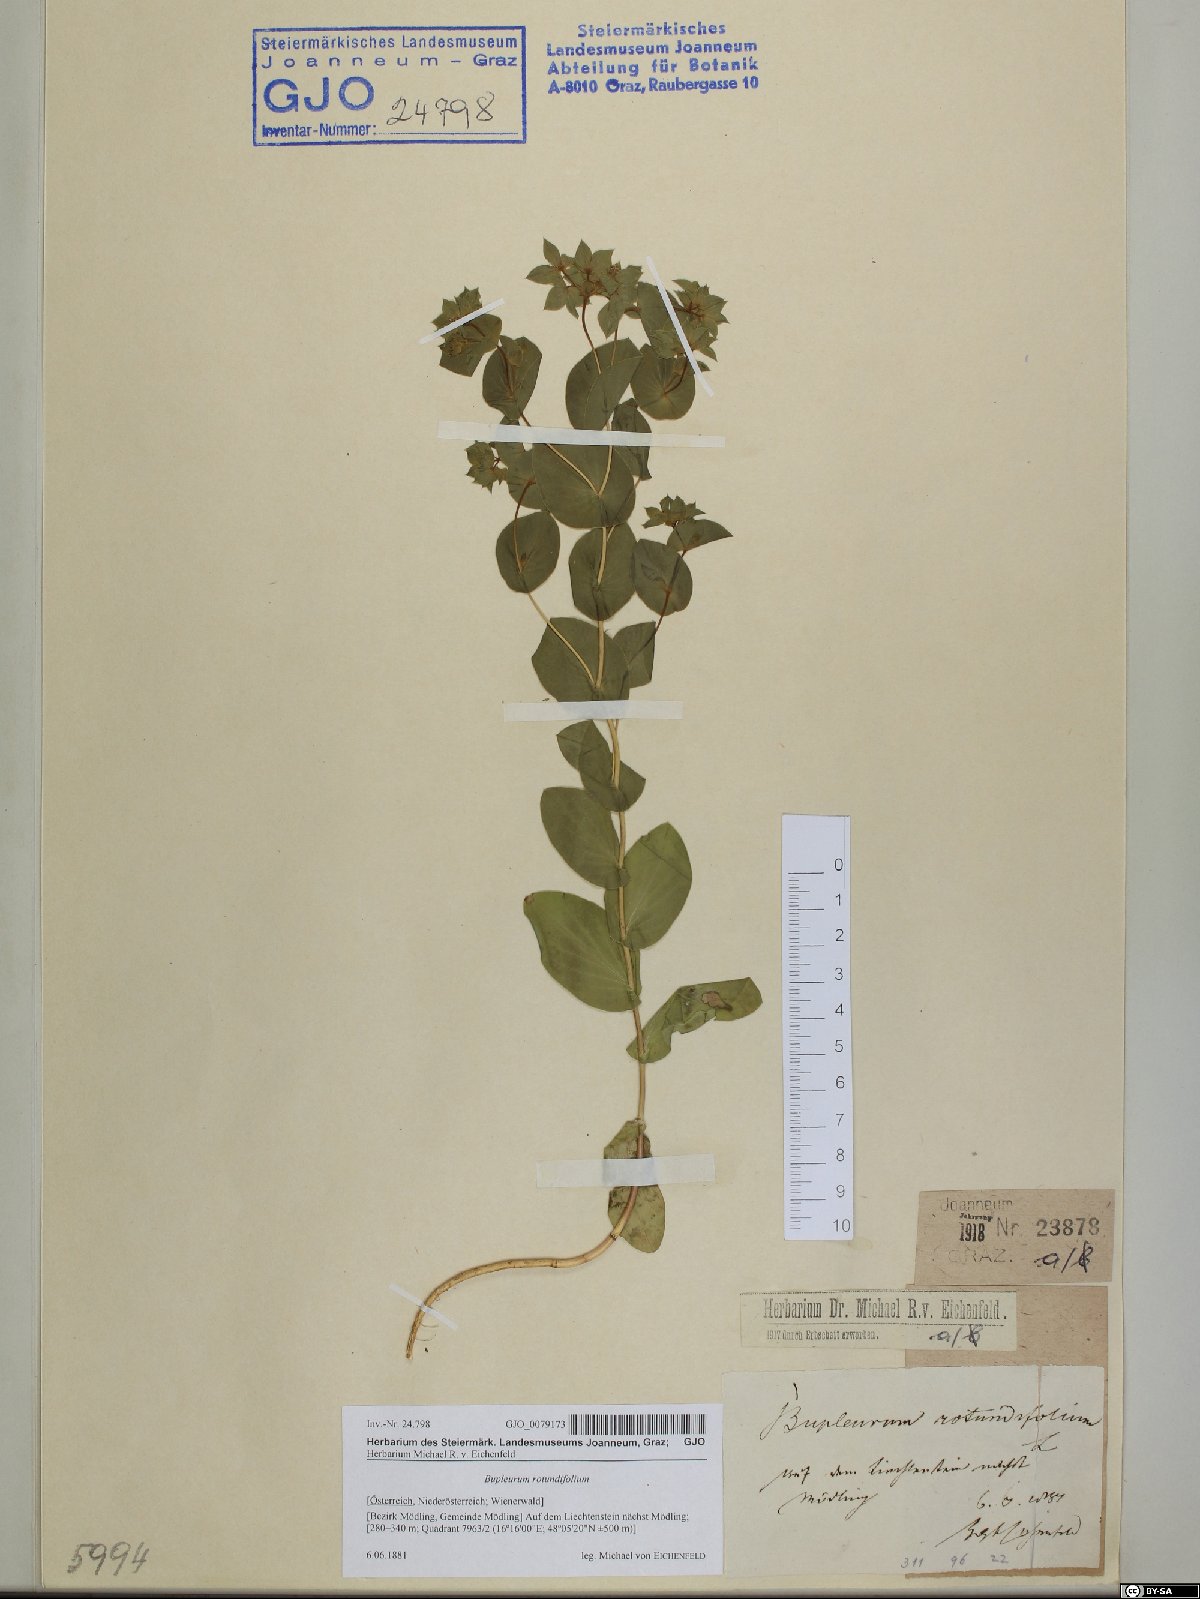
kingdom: Plantae
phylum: Tracheophyta
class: Magnoliopsida
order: Apiales
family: Apiaceae
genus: Bupleurum
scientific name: Bupleurum rotundifolium
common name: Thorow-wax
